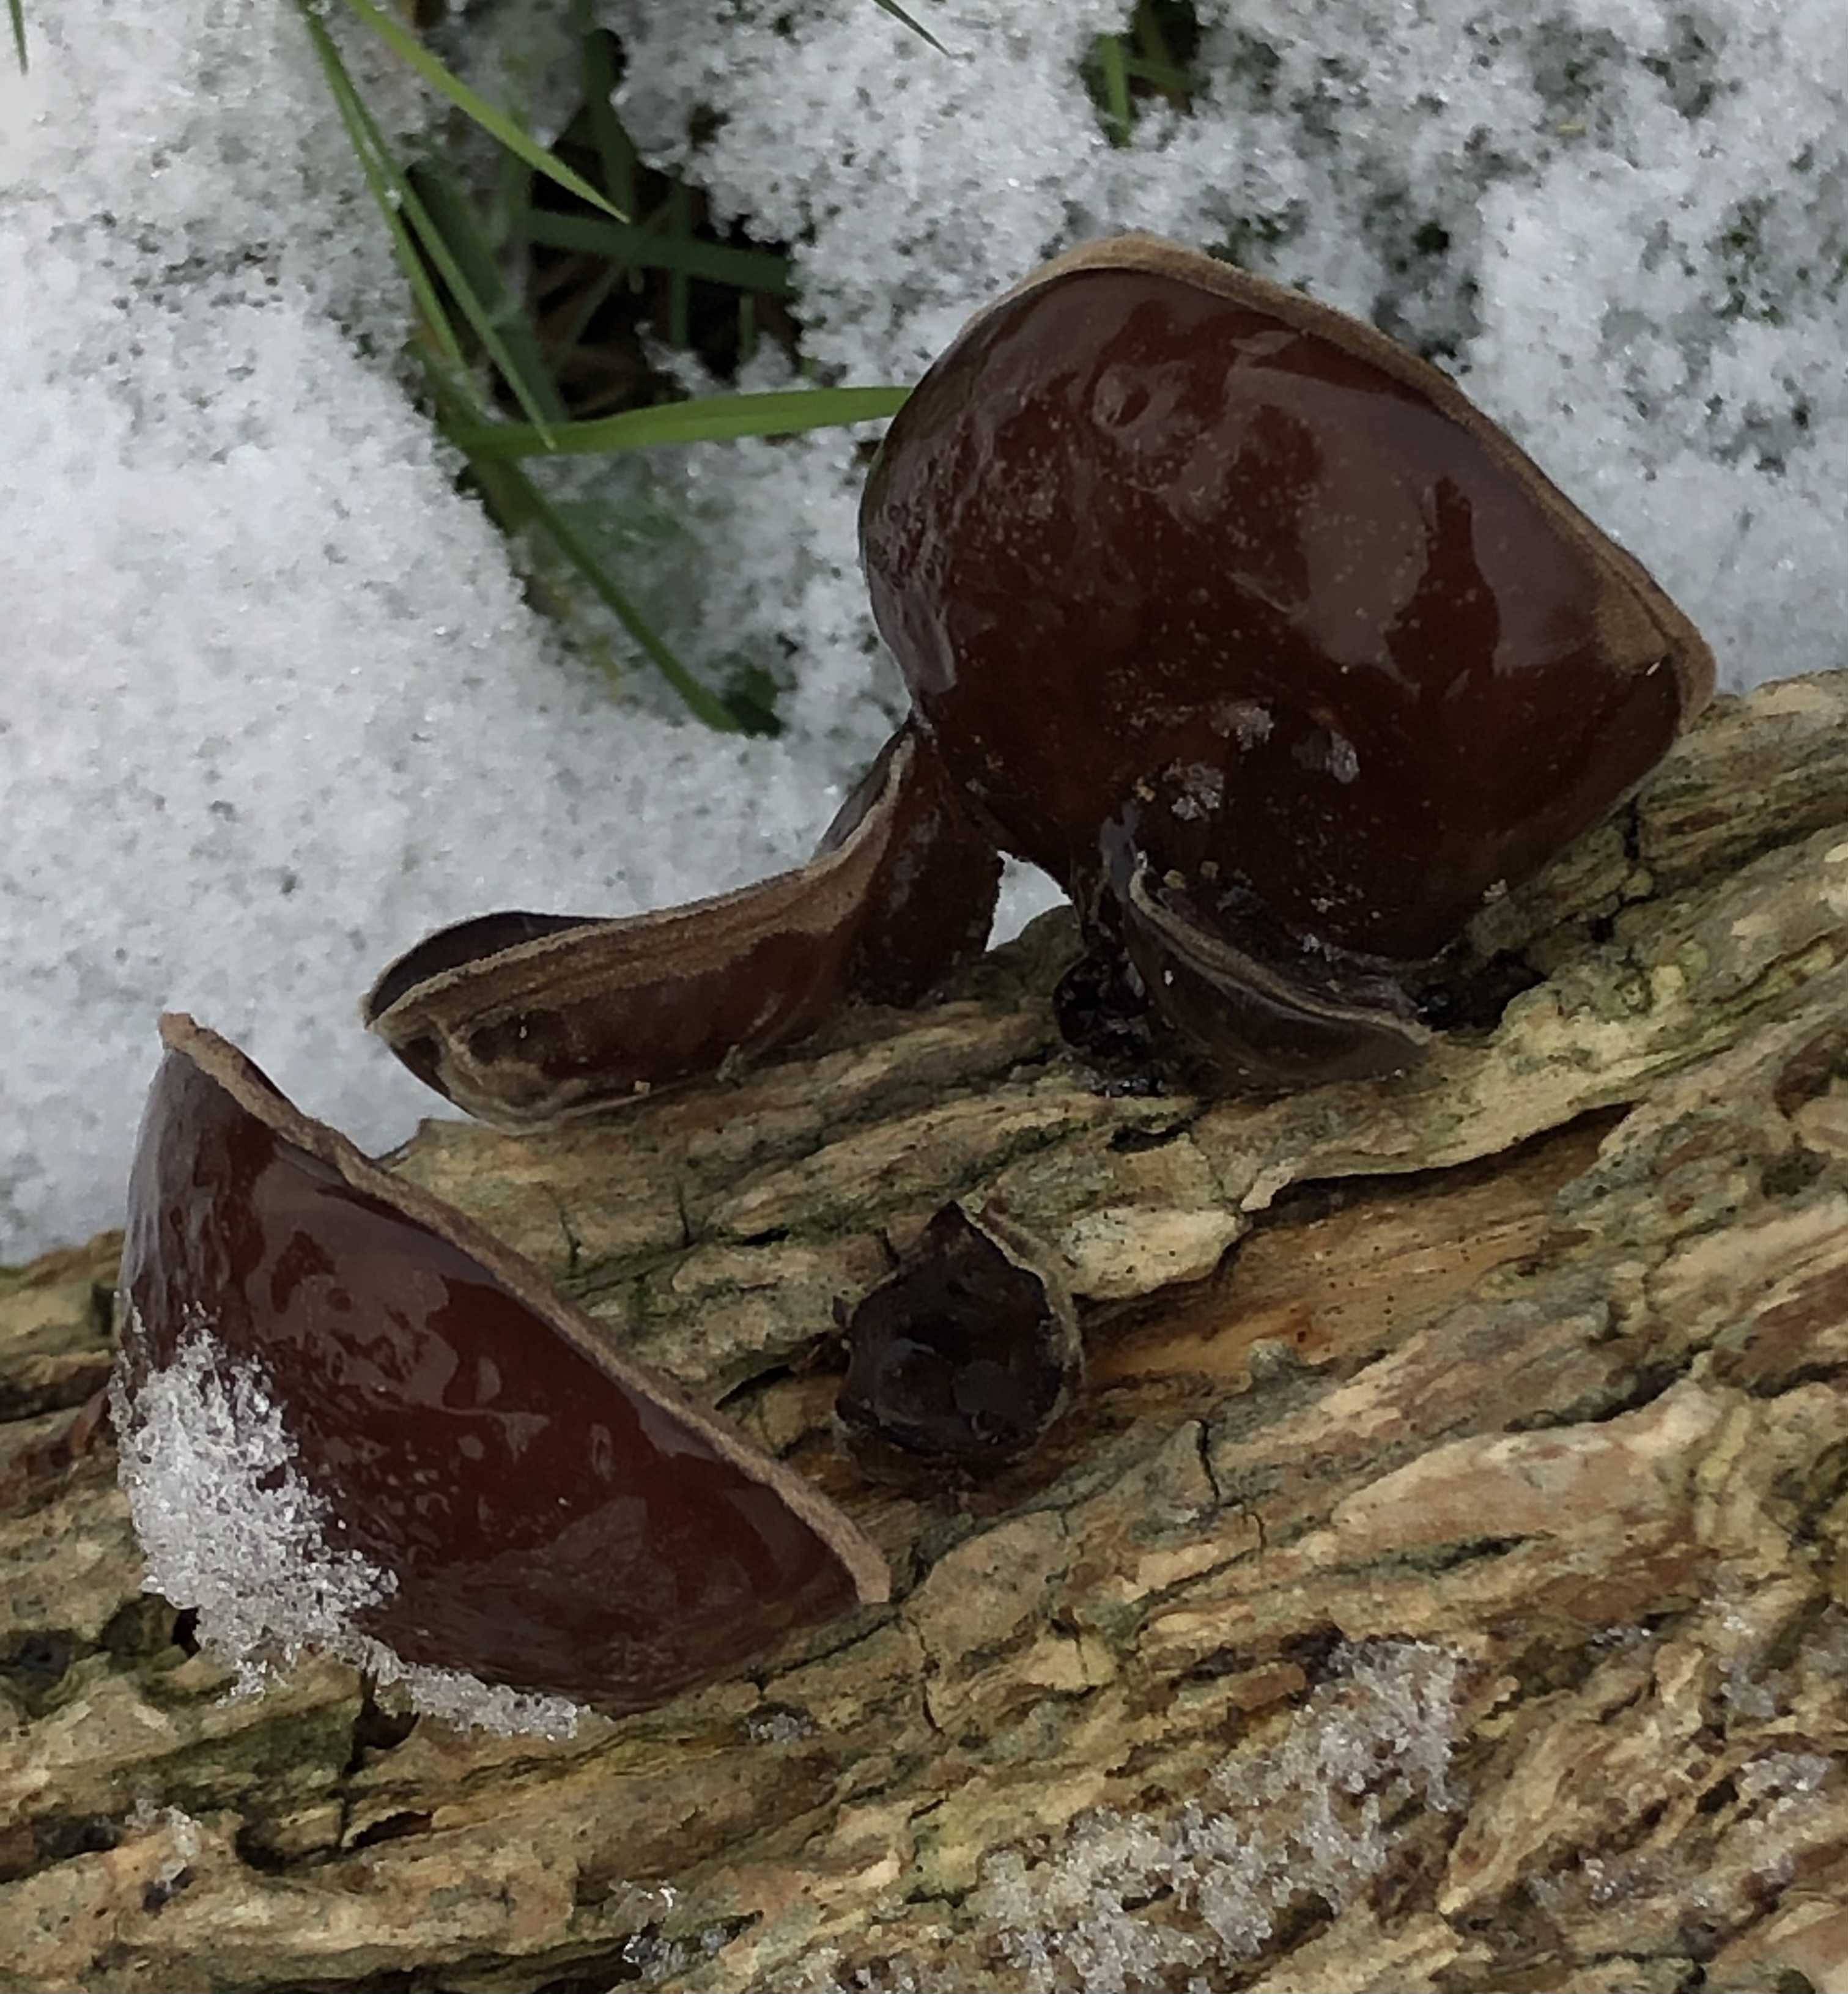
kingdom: Fungi
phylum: Basidiomycota
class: Agaricomycetes
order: Auriculariales
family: Auriculariaceae
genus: Auricularia
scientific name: Auricularia auricula-judae
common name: almindelig judasøre
